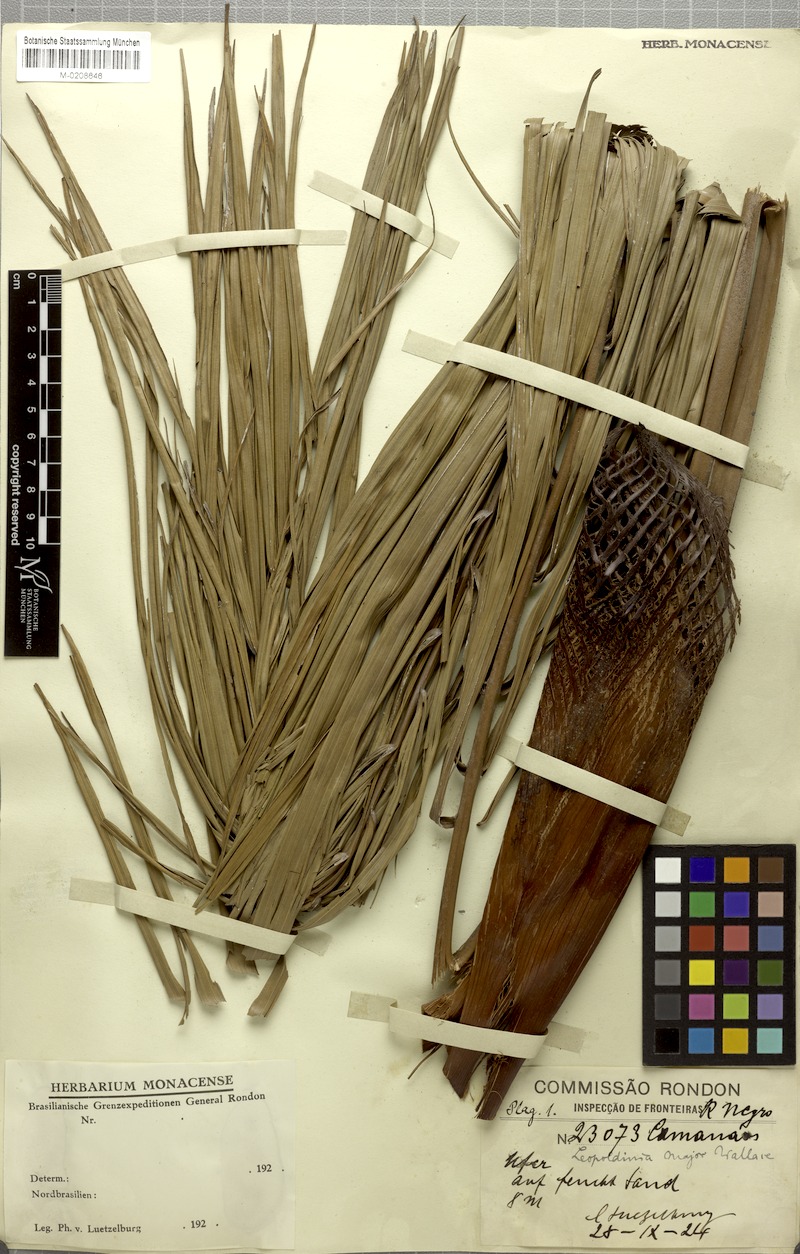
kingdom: Plantae
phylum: Tracheophyta
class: Liliopsida
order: Arecales
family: Arecaceae
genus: Leopoldinia
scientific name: Leopoldinia major
